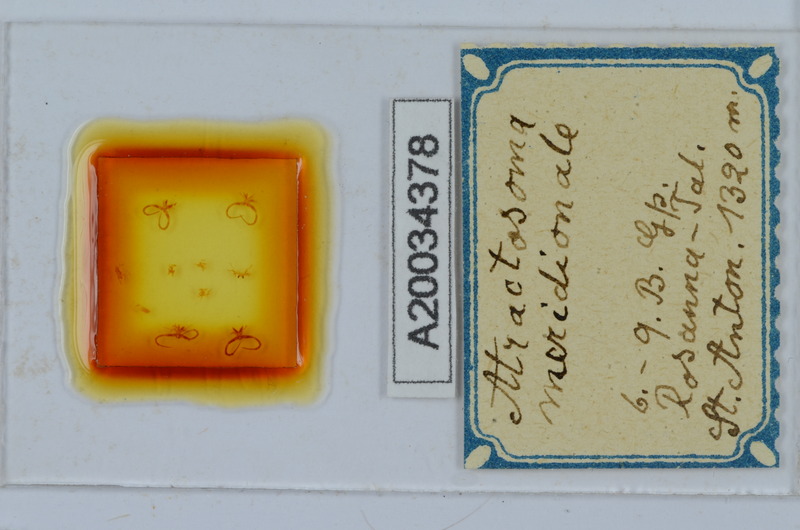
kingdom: Animalia
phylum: Arthropoda
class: Diplopoda
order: Chordeumatida
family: Craspedosomatidae
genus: Atractosoma
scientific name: Atractosoma meridionale
